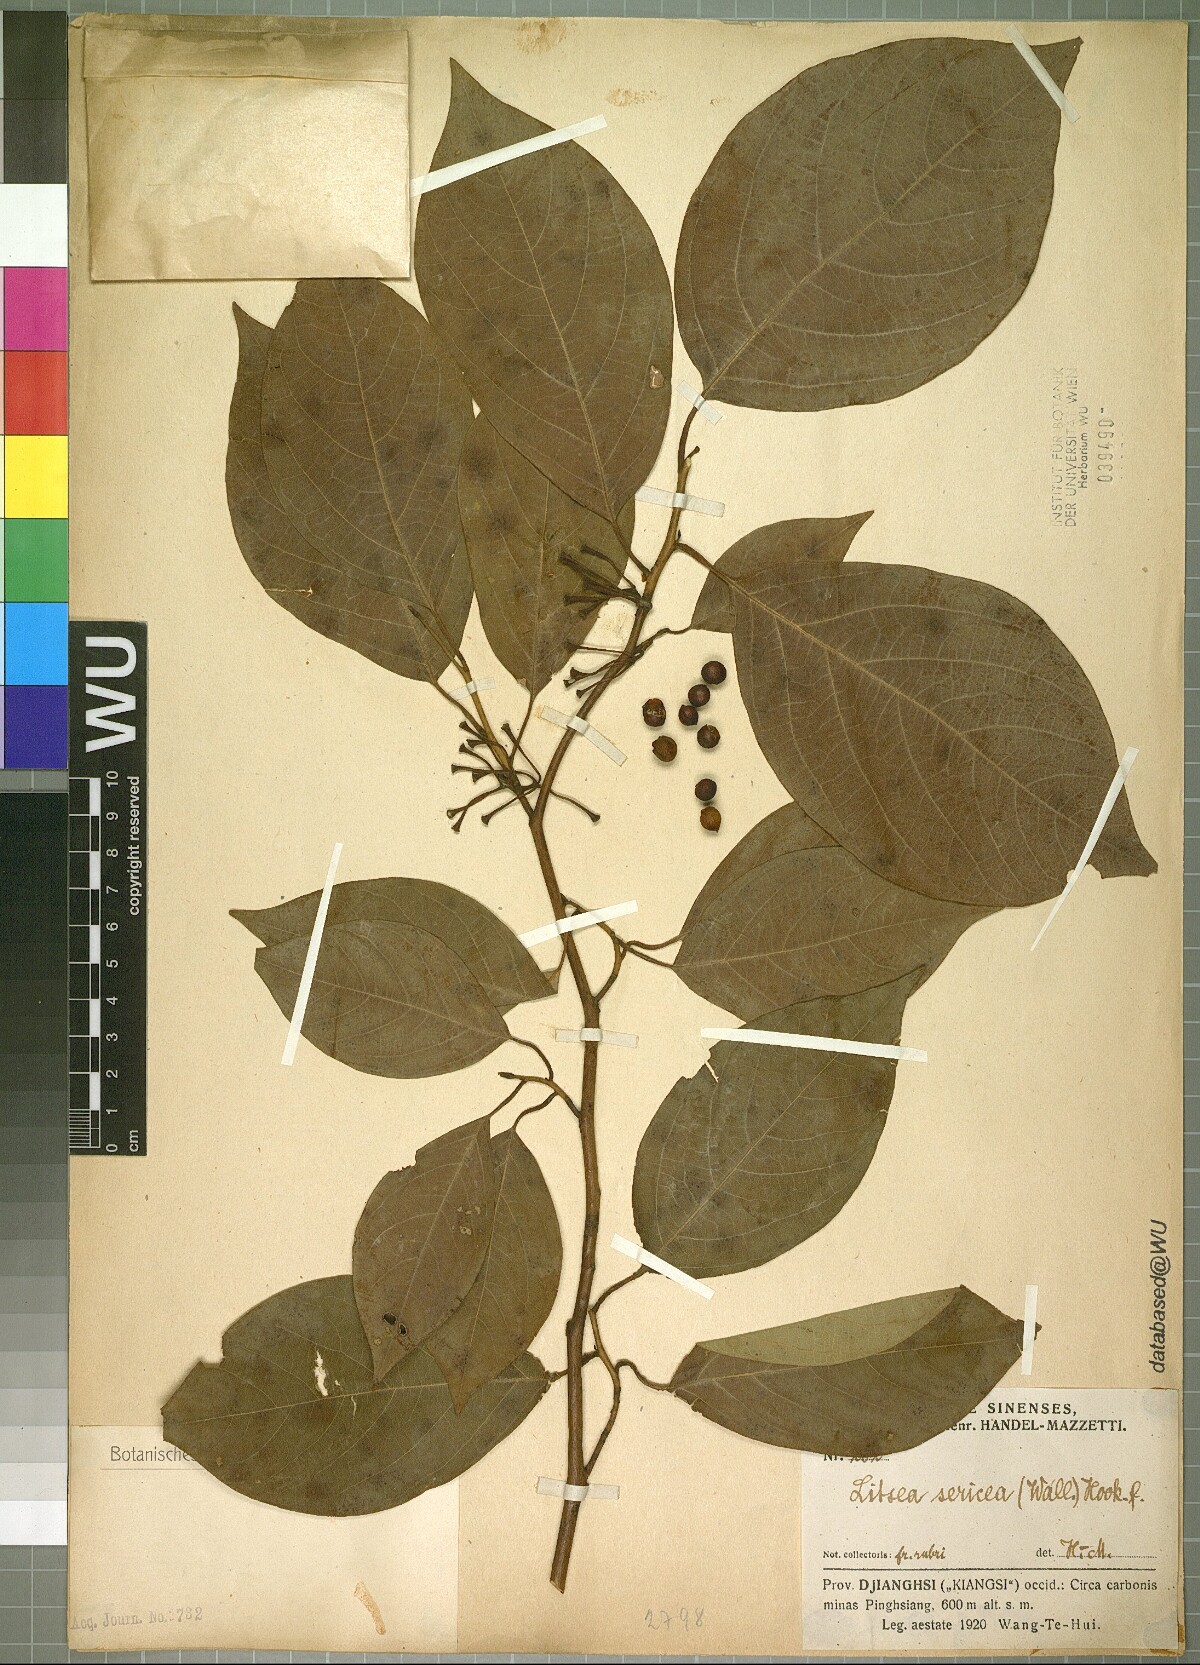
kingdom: Plantae
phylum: Tracheophyta
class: Magnoliopsida
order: Laurales
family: Lauraceae
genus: Litsea
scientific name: Litsea sericea
